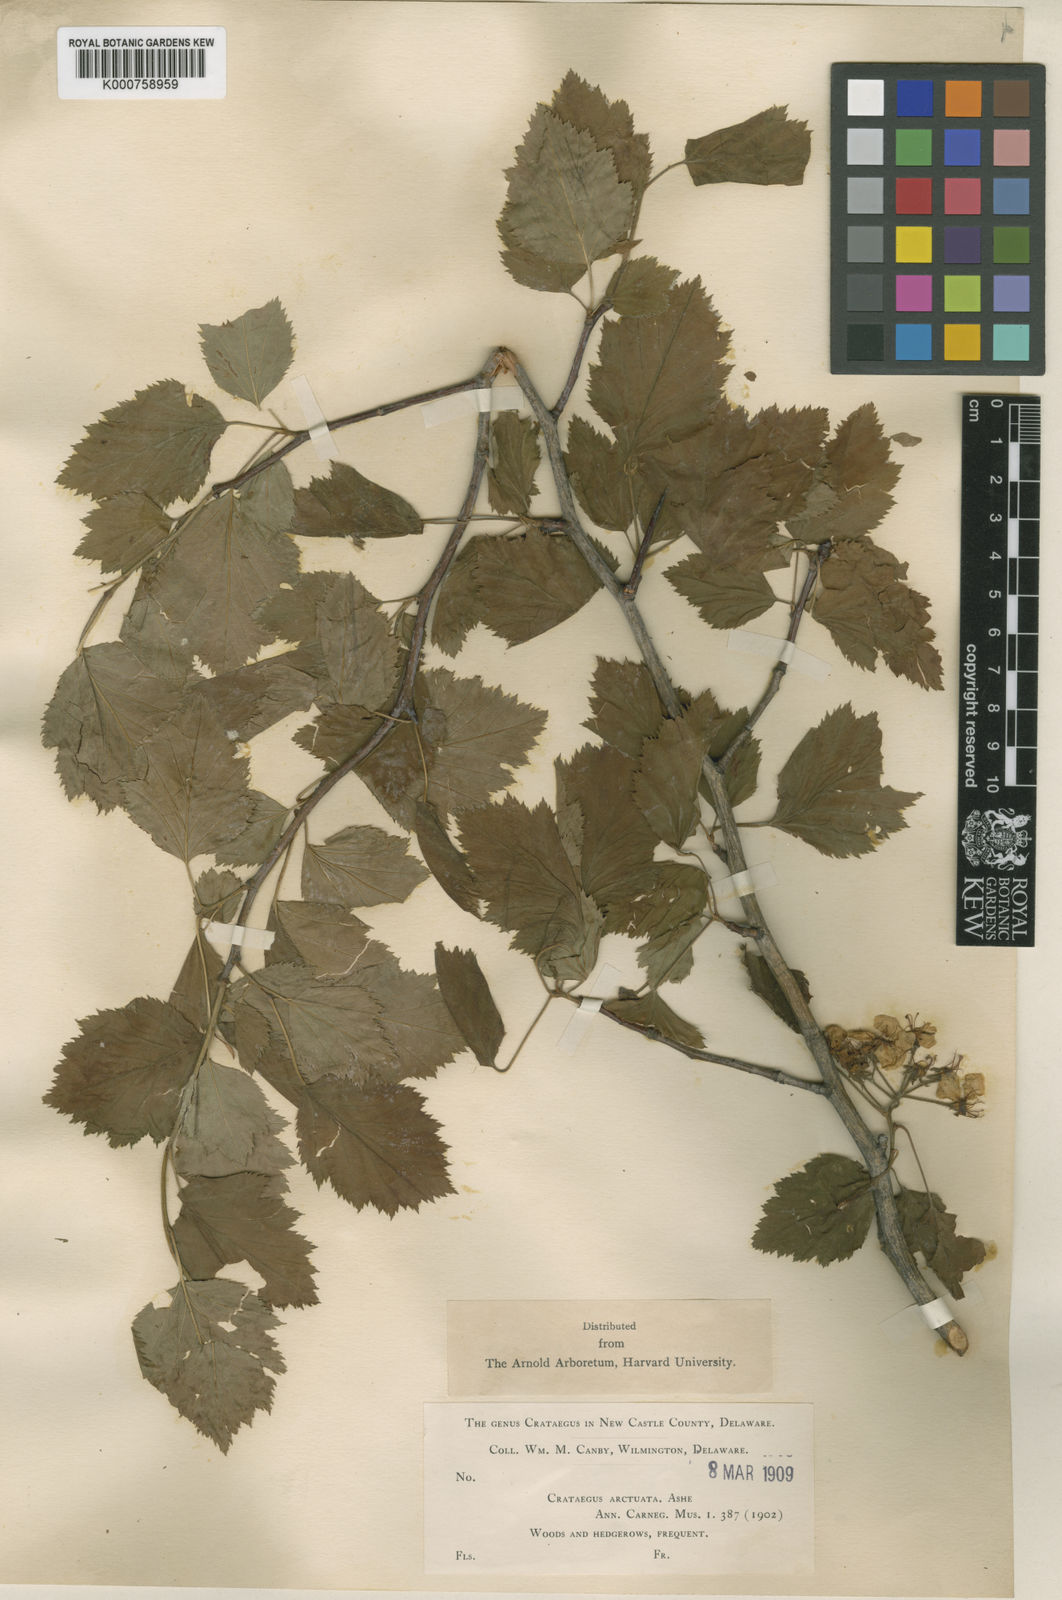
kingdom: Plantae
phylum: Tracheophyta
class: Magnoliopsida
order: Rosales
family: Rosaceae
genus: Crataegus
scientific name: Crataegus
